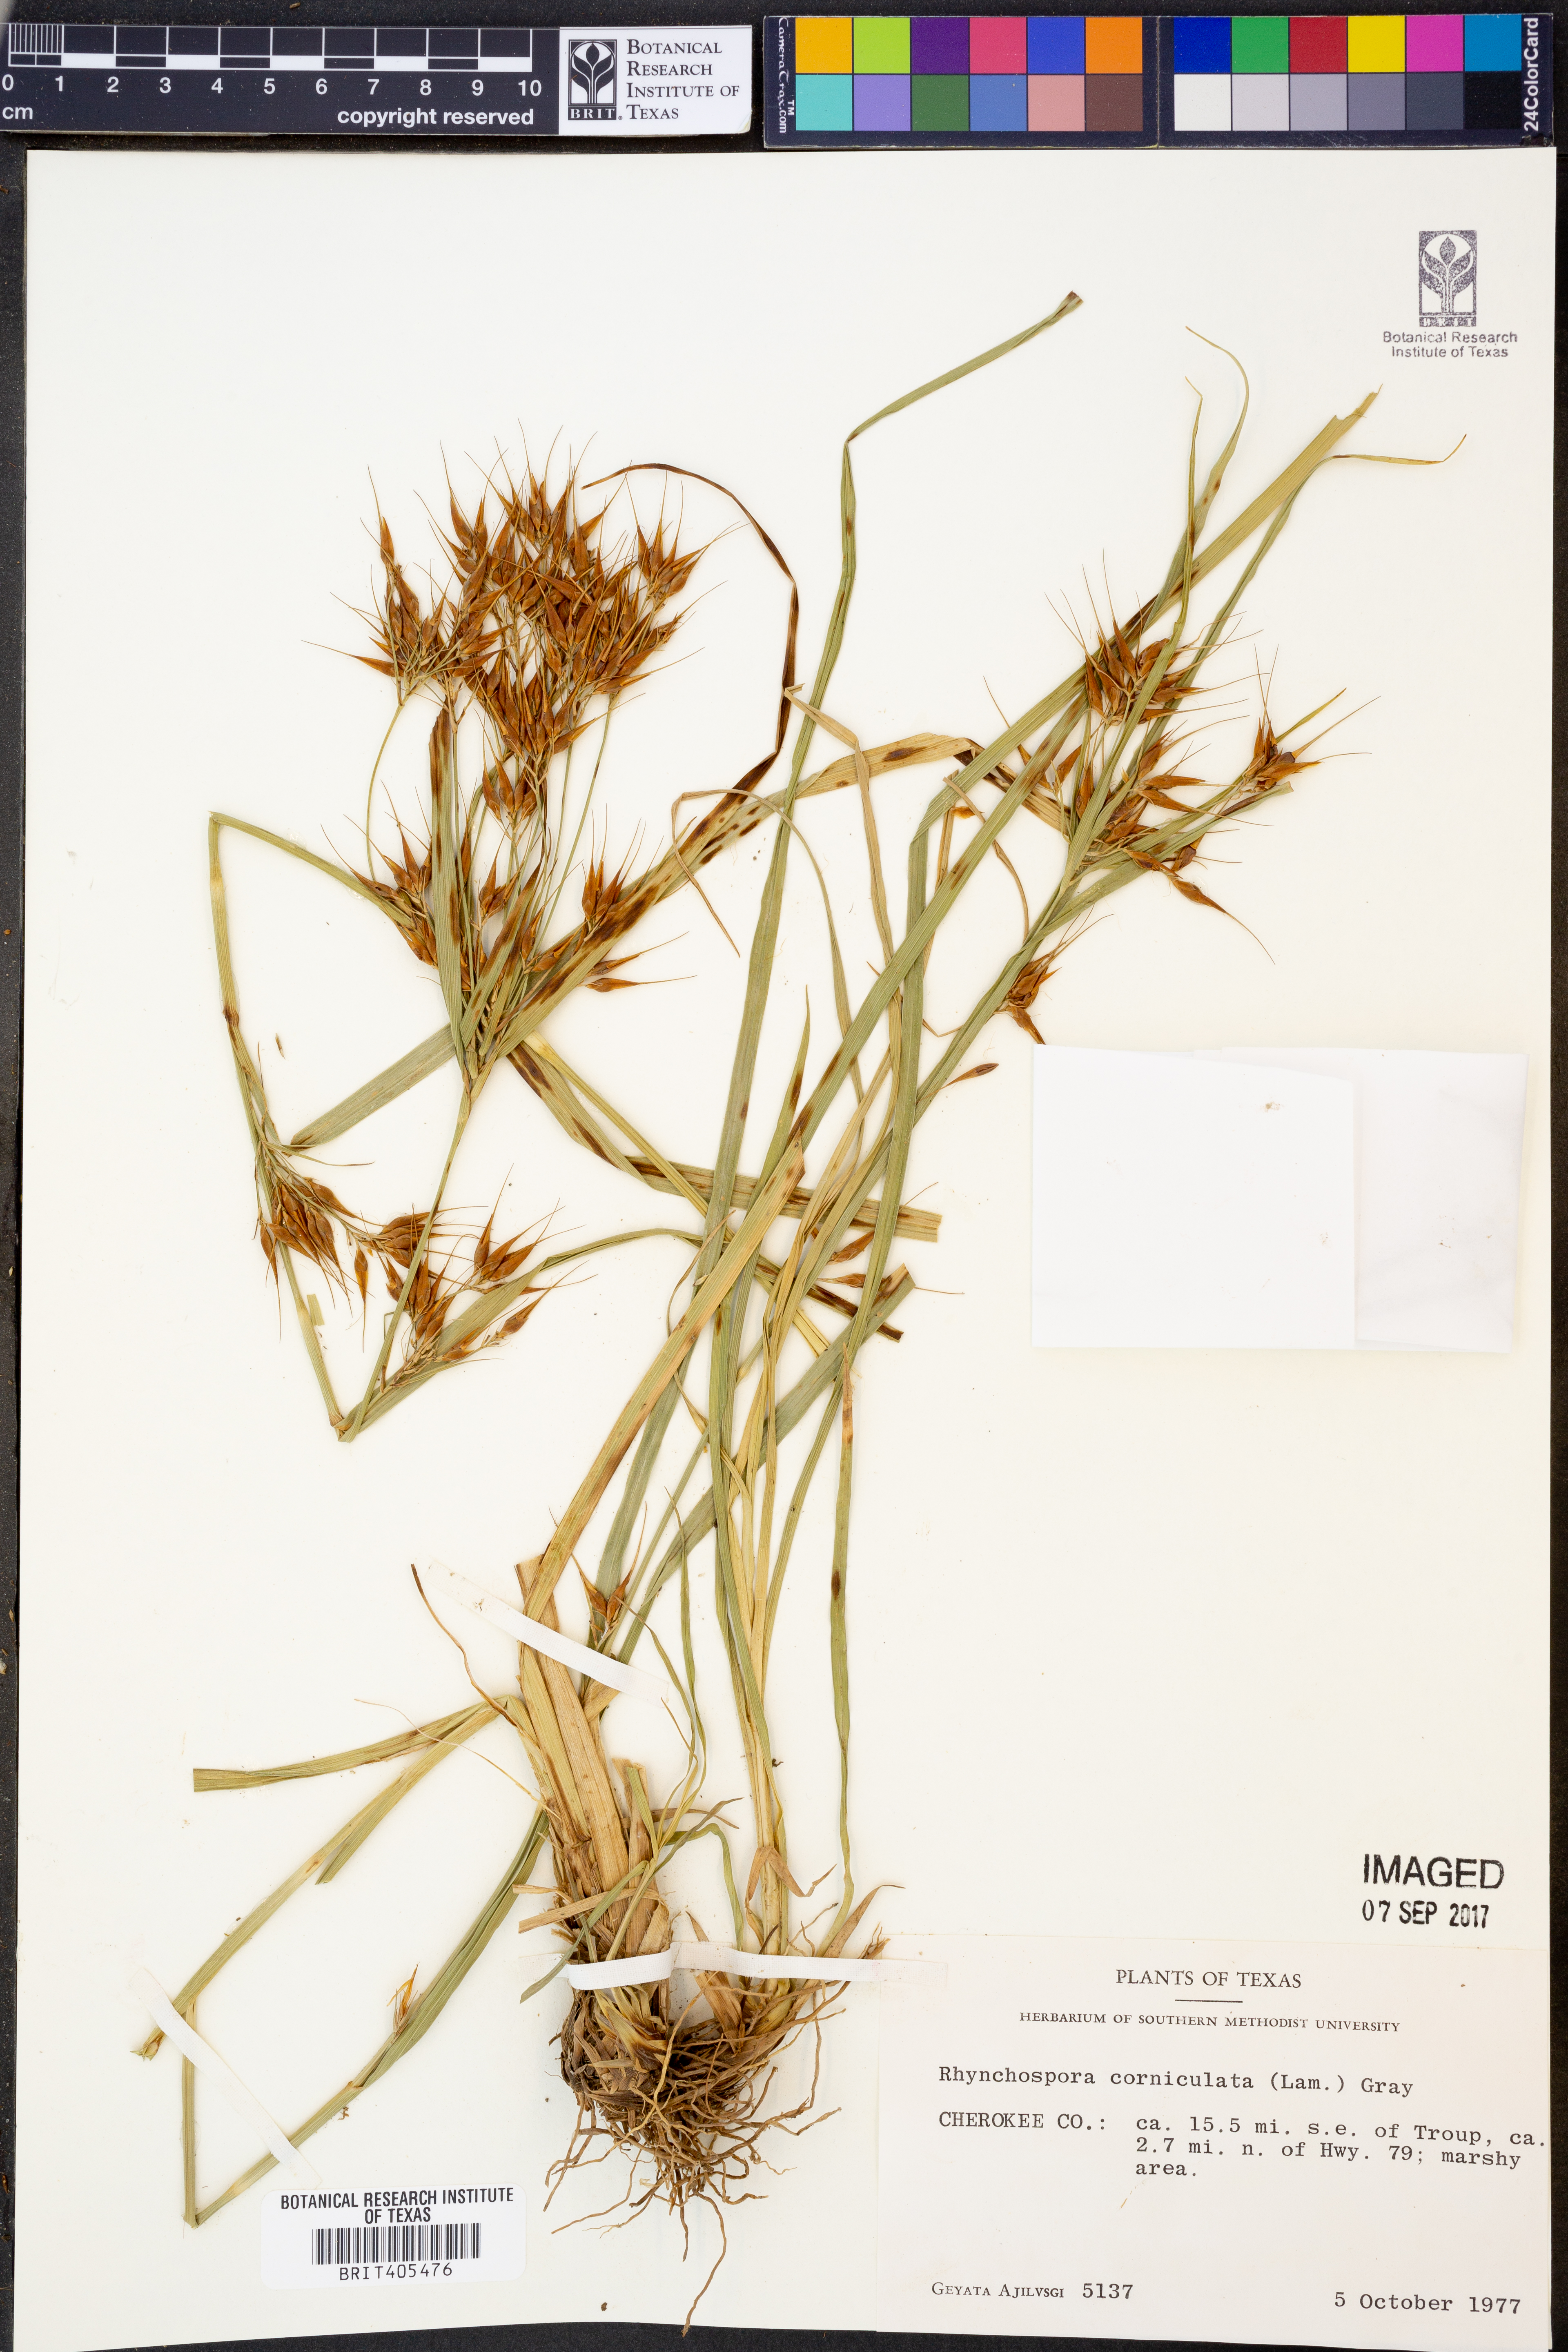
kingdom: Plantae
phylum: Tracheophyta
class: Liliopsida
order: Poales
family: Cyperaceae
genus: Rhynchospora
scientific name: Rhynchospora corniculata
